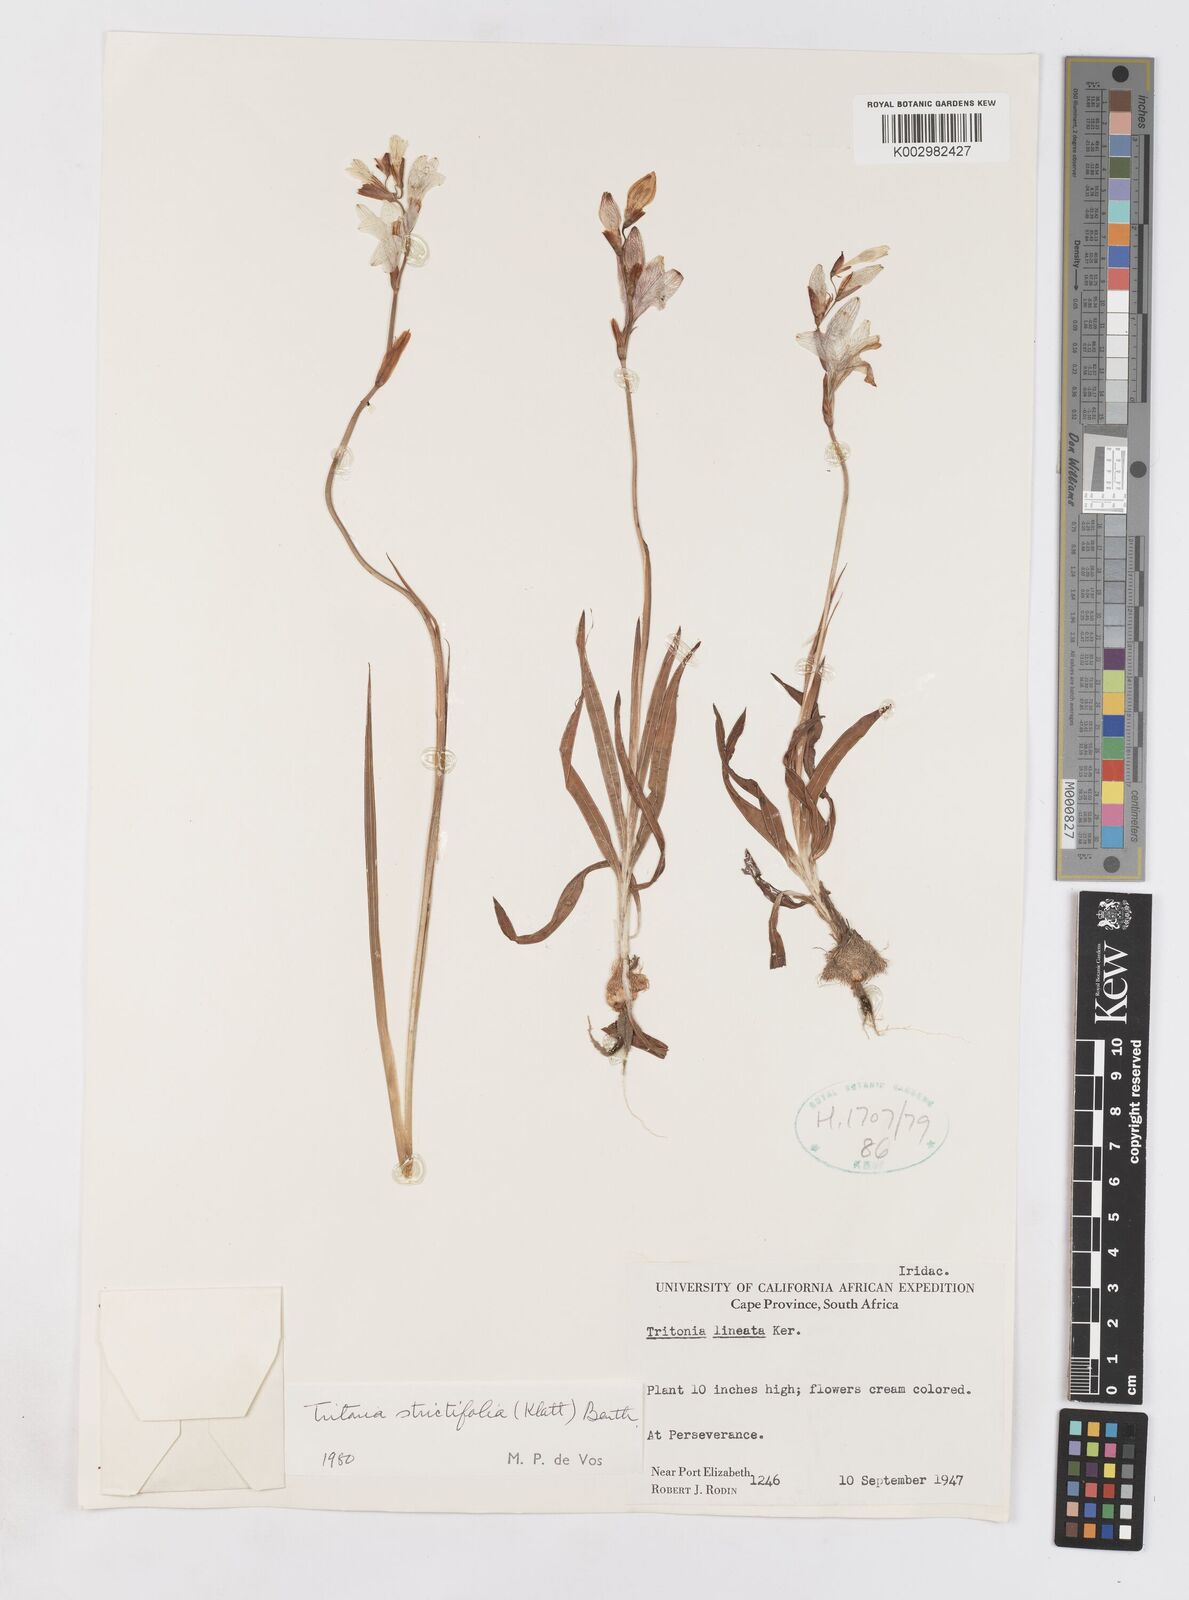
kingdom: Plantae
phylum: Tracheophyta
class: Liliopsida
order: Asparagales
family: Iridaceae
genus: Tritonia
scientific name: Tritonia laxifolia
